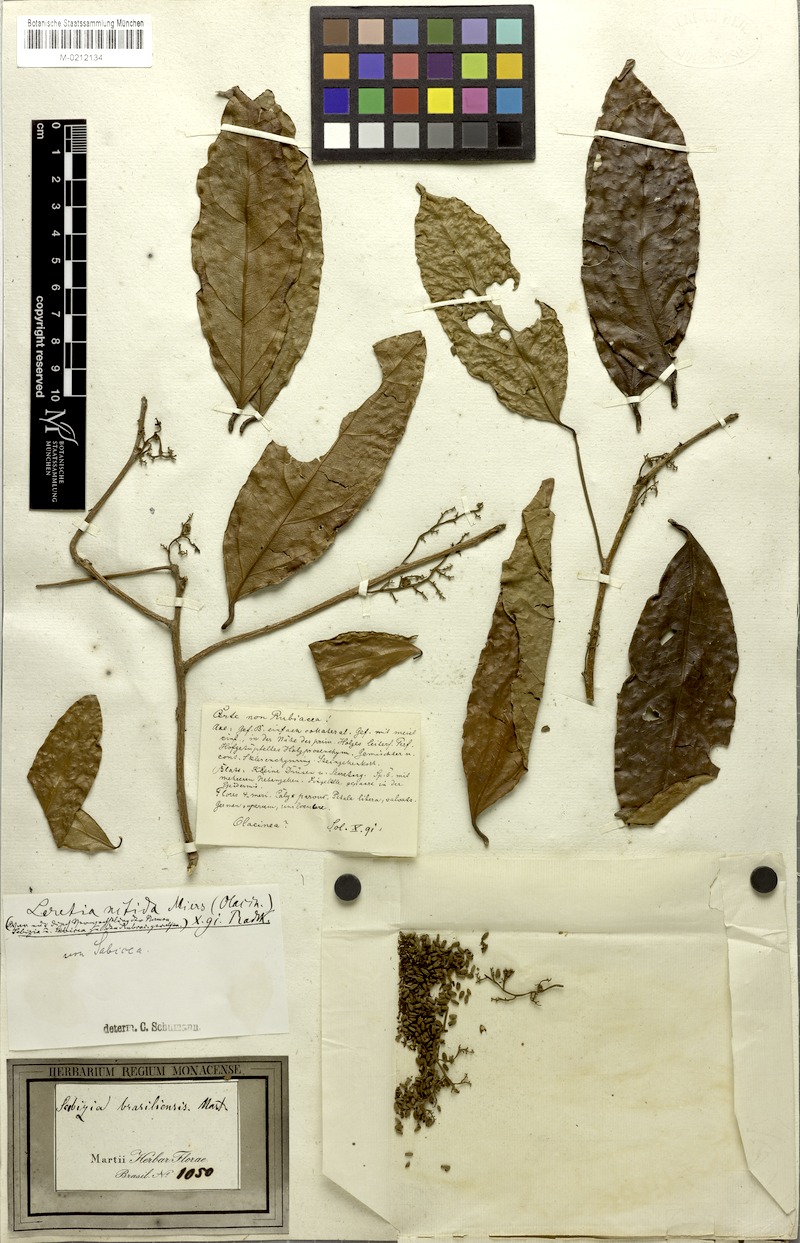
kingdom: Plantae
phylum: Tracheophyta
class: Magnoliopsida
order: Icacinales
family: Icacinaceae
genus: Leretia
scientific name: Leretia cordata
